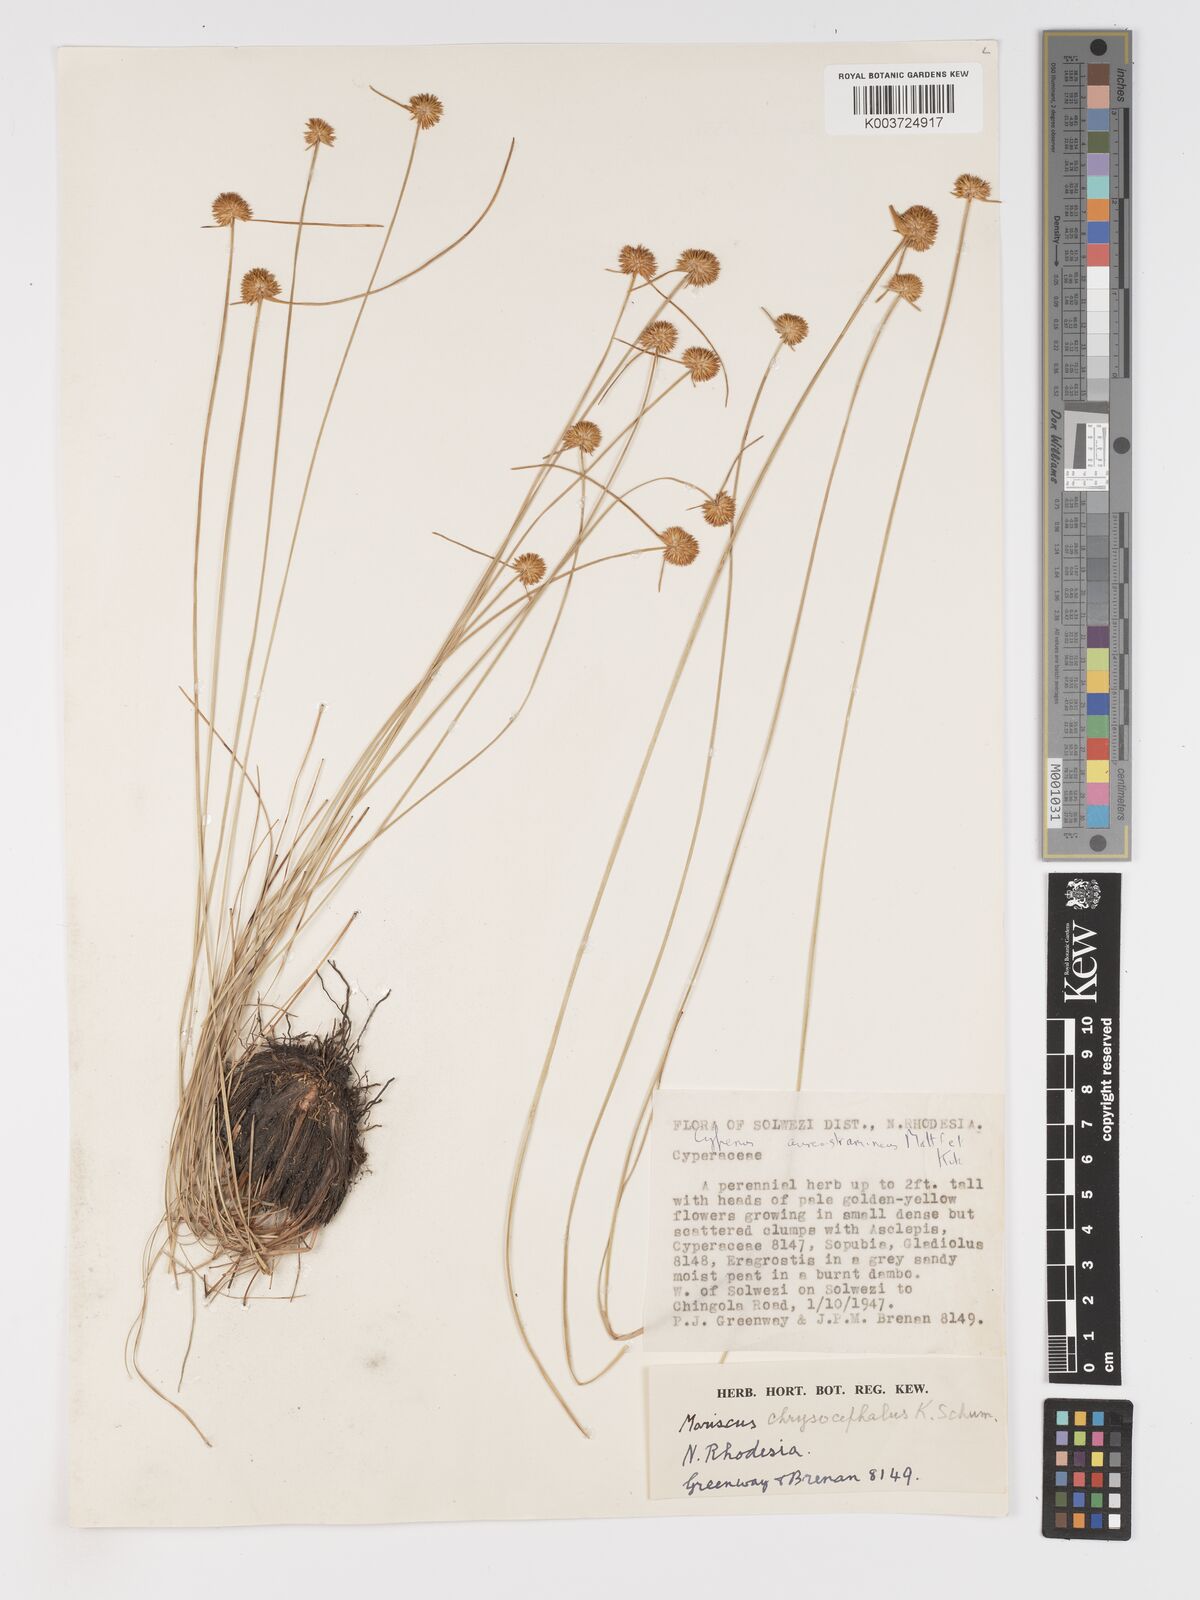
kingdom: Plantae
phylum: Tracheophyta
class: Liliopsida
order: Poales
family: Cyperaceae
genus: Cyperus
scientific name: Cyperus chrysocephalus
